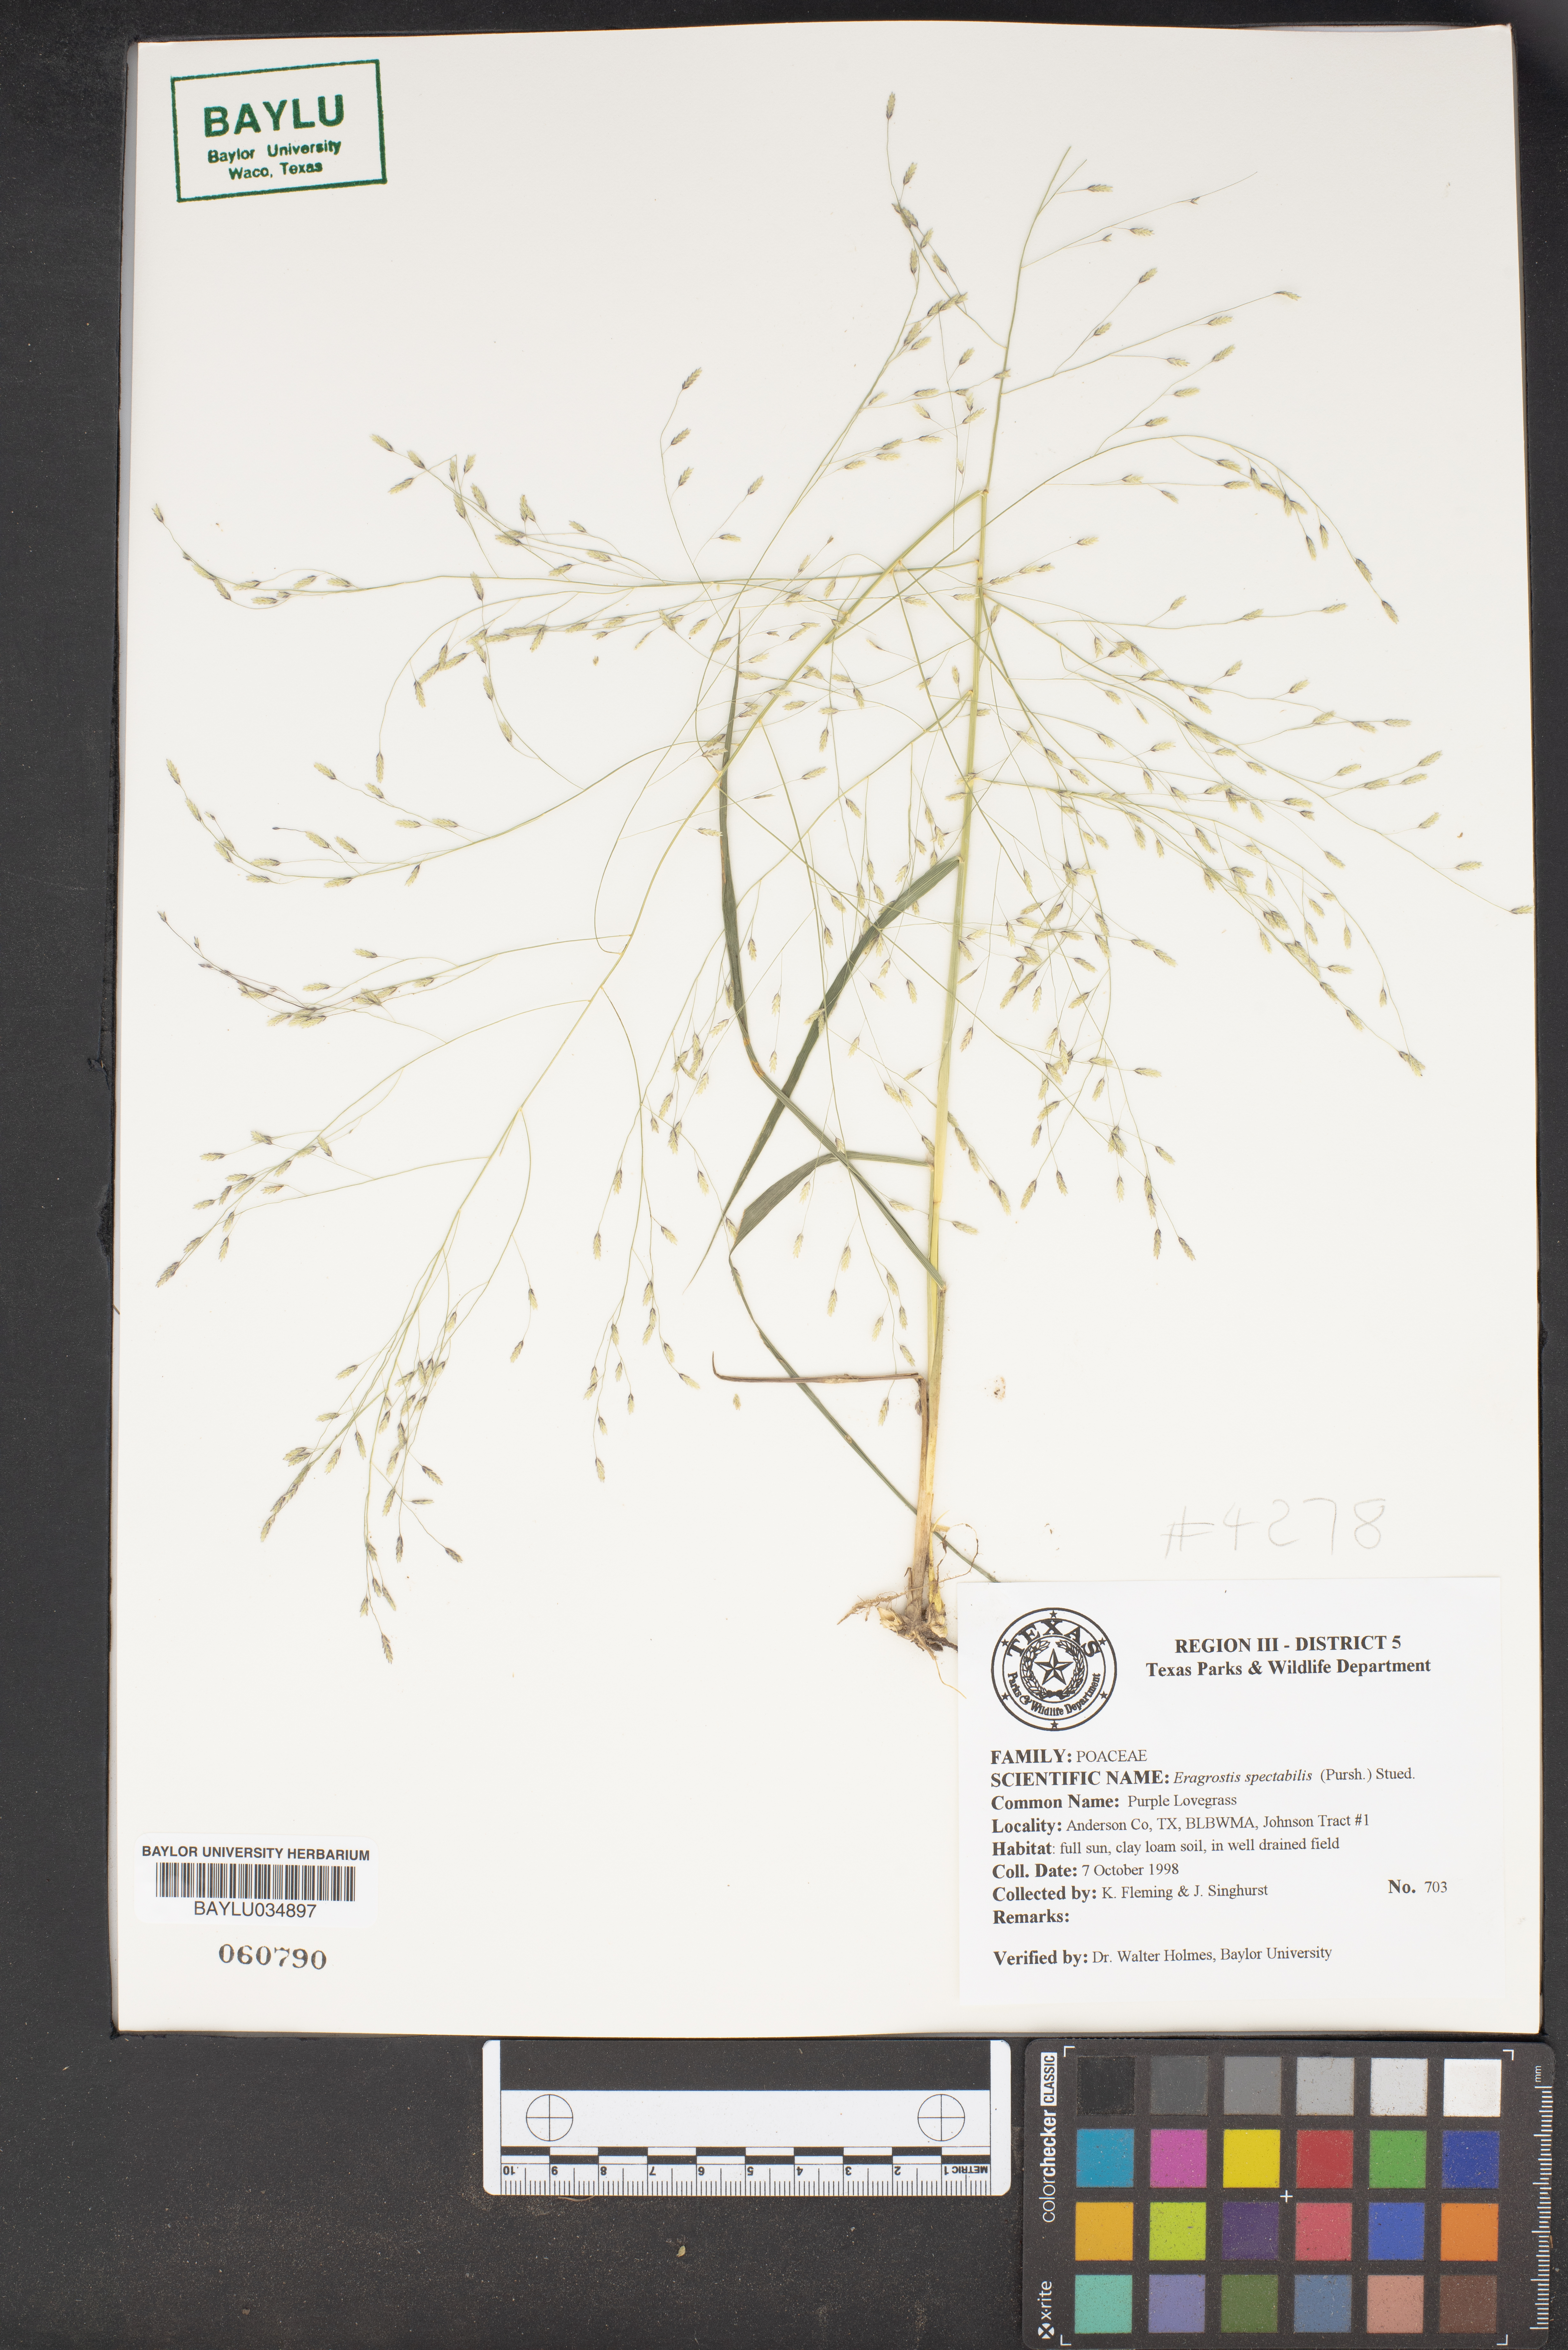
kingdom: Plantae
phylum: Tracheophyta
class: Liliopsida
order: Poales
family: Poaceae
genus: Eragrostis
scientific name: Eragrostis spectabilis
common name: Petticoat-climber
